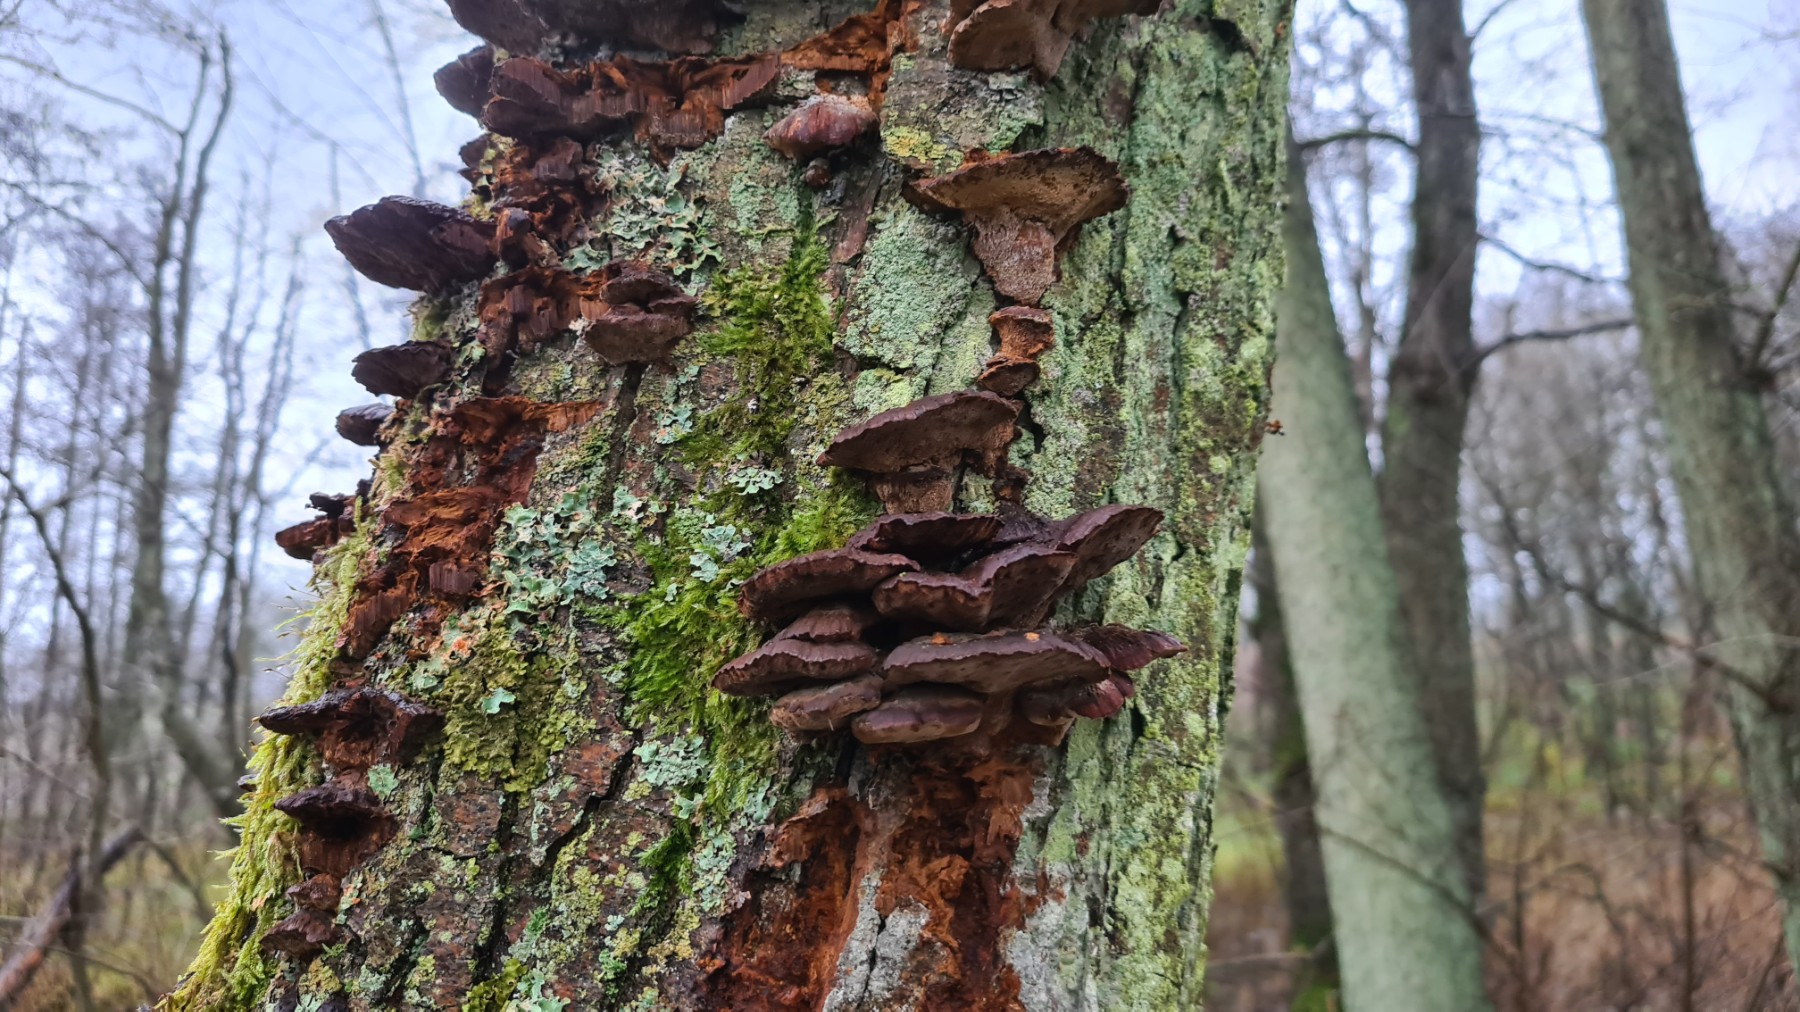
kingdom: Fungi
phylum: Basidiomycota
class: Agaricomycetes
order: Hymenochaetales
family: Hymenochaetaceae
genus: Xanthoporia
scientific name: Xanthoporia radiata
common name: elle-spejlporesvamp
